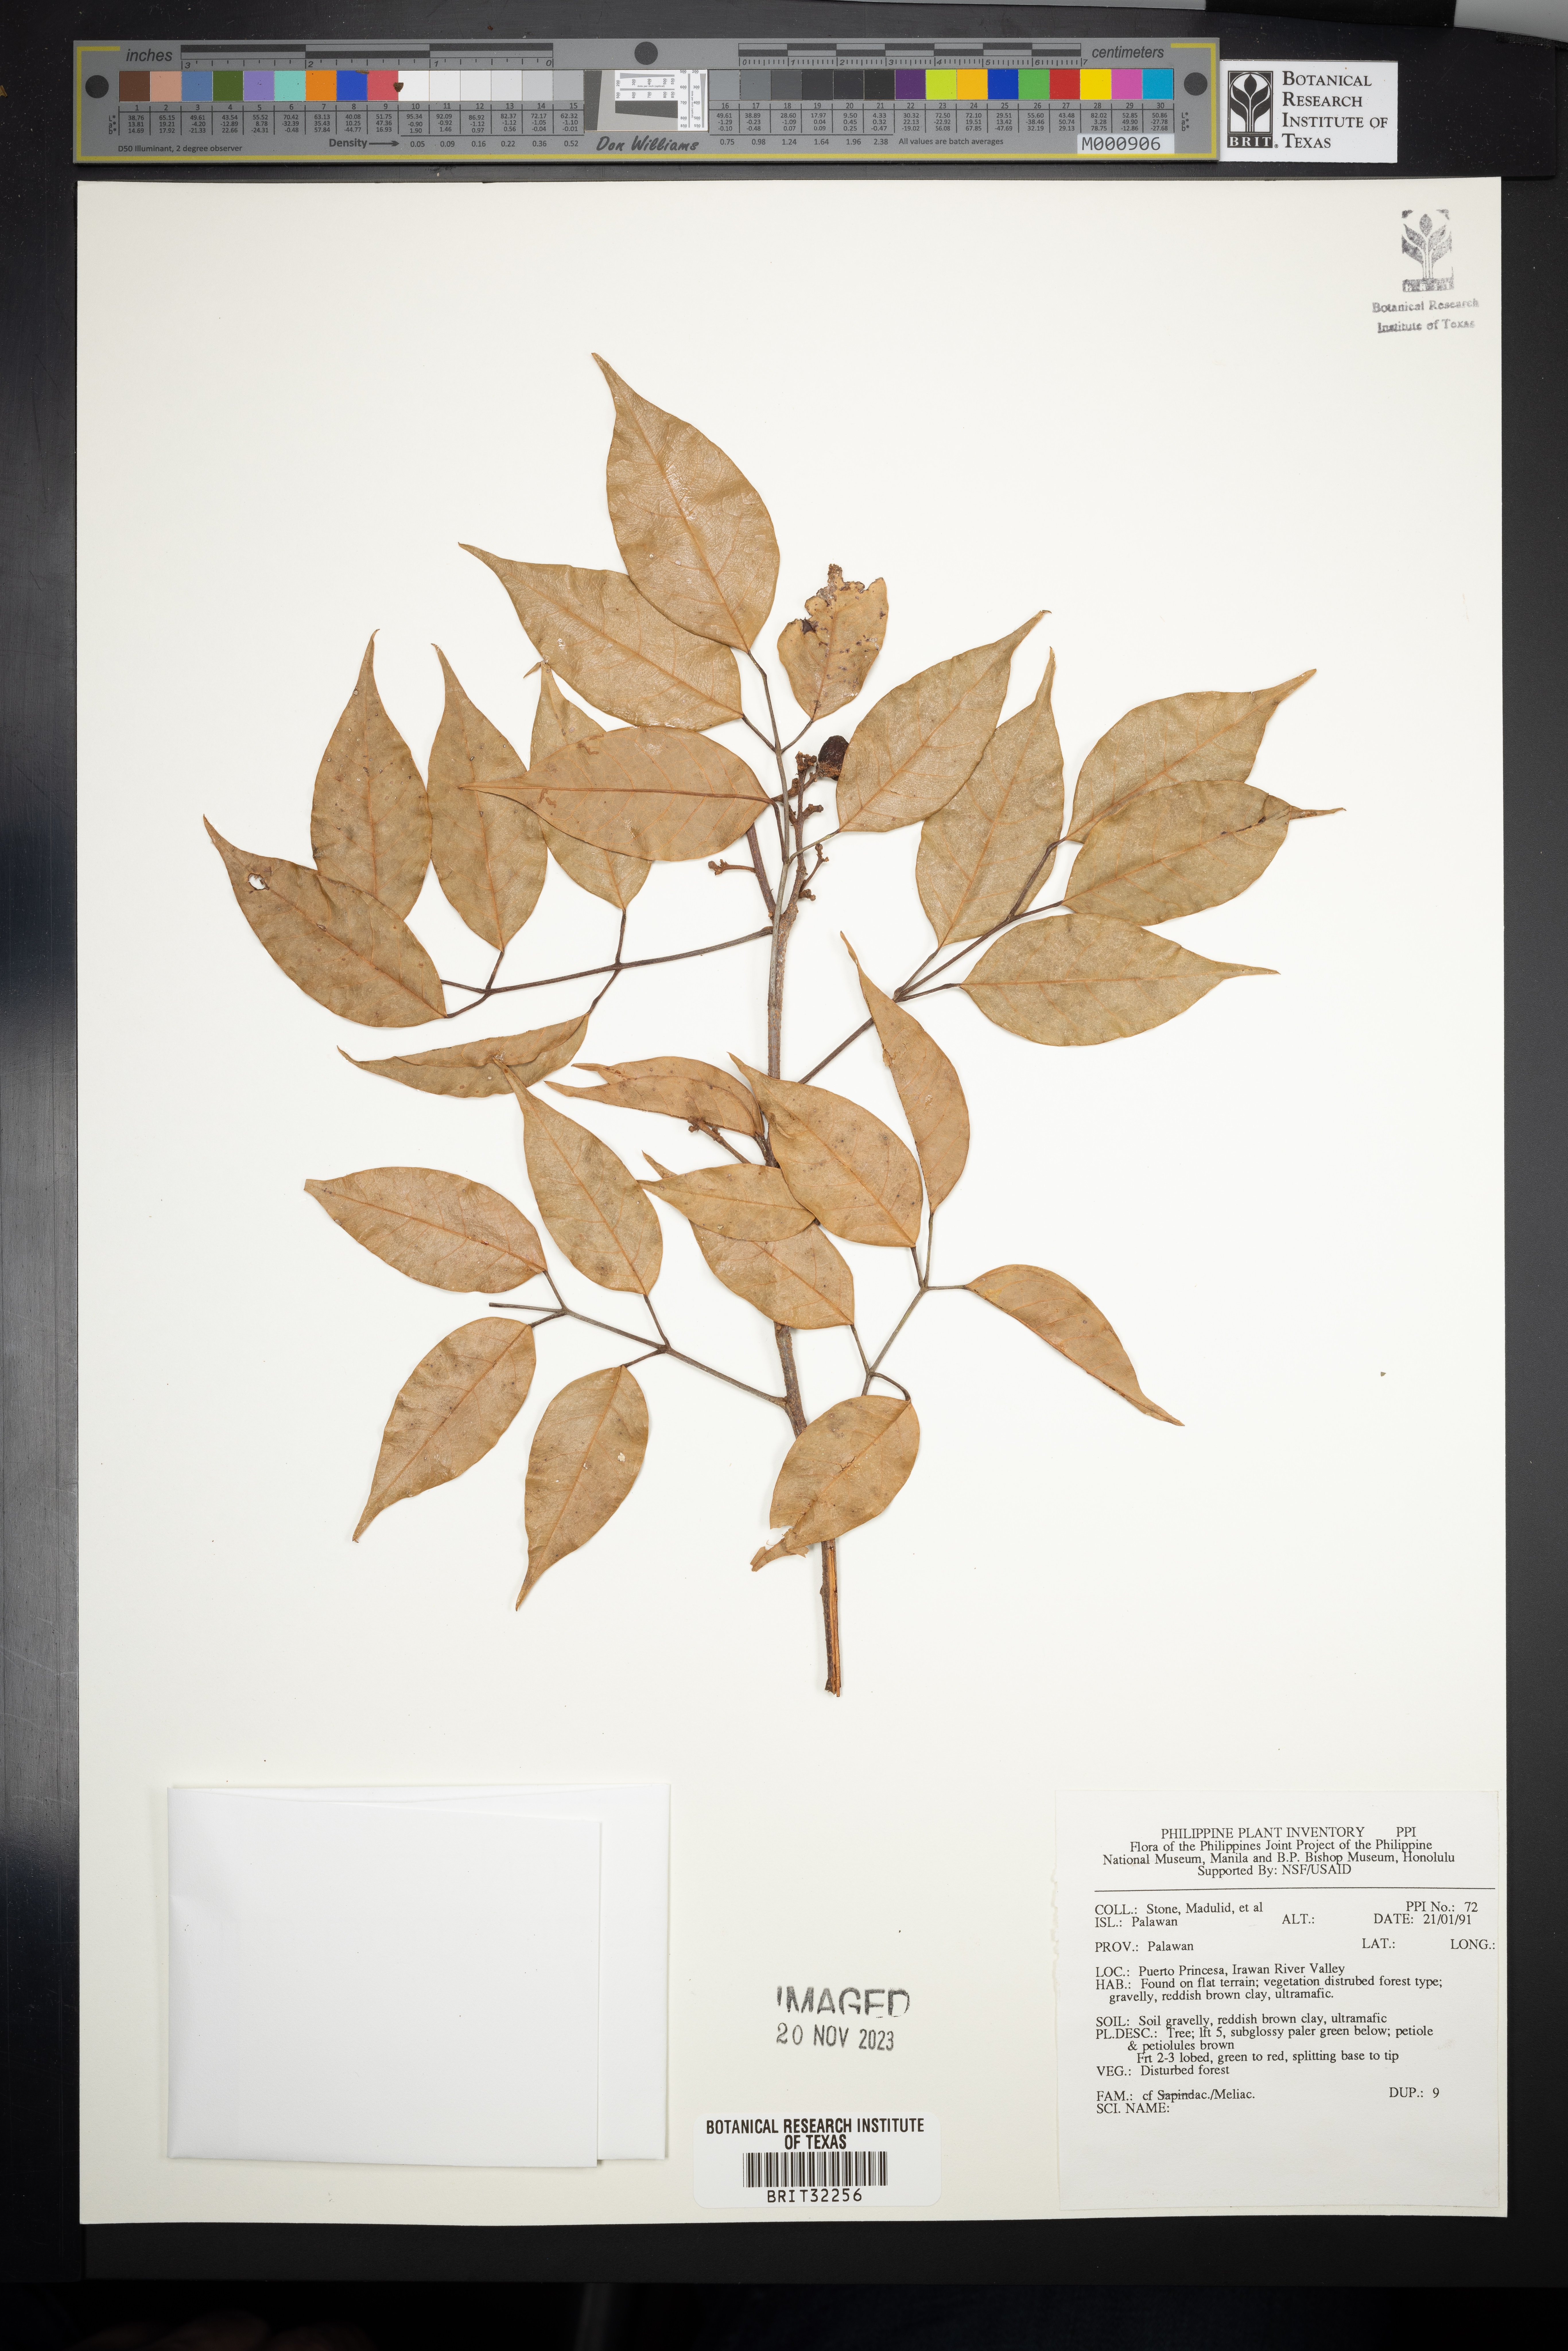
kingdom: Plantae
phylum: Tracheophyta
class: Magnoliopsida
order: Sapindales
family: Meliaceae
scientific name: Meliaceae
